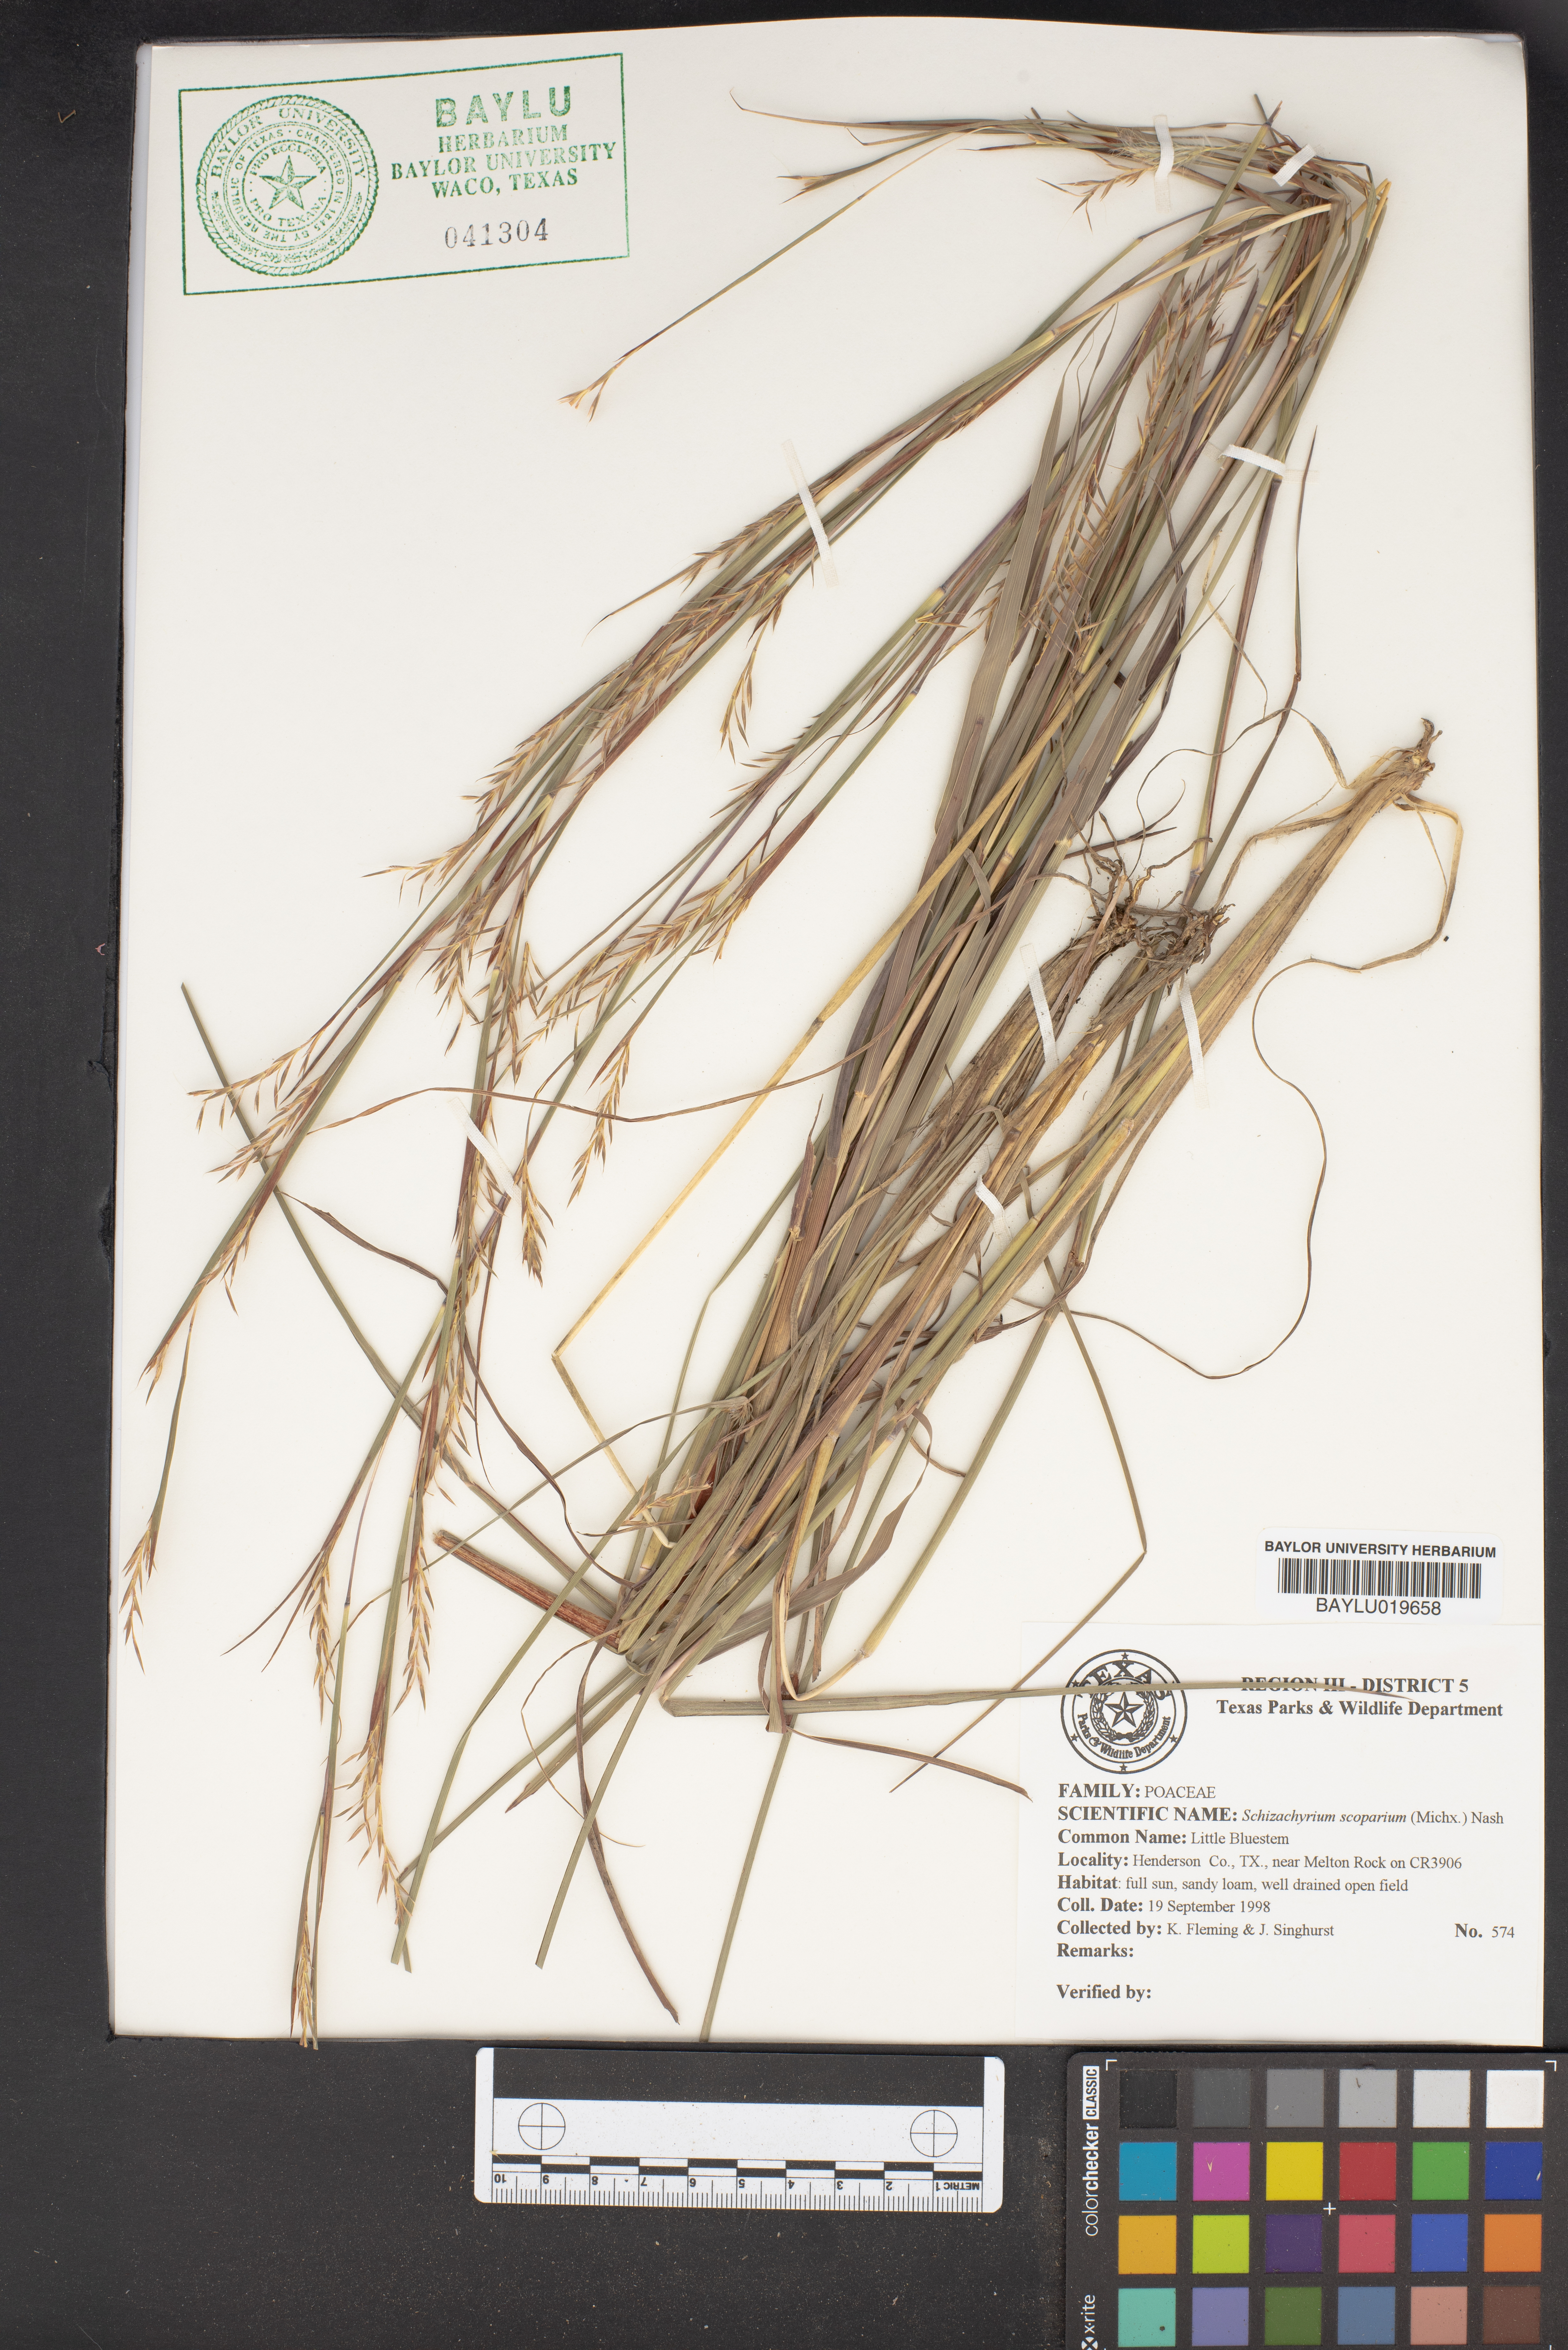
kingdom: Plantae
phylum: Tracheophyta
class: Liliopsida
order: Poales
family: Poaceae
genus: Schizachyrium
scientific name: Schizachyrium scoparium
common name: Little bluestem
